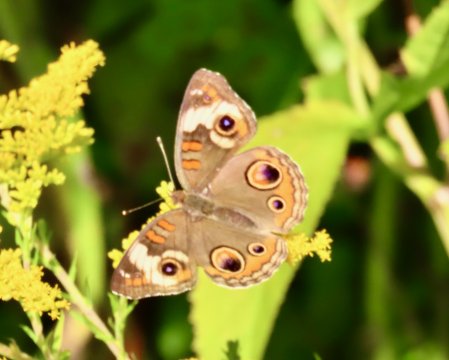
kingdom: Animalia
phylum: Arthropoda
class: Insecta
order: Lepidoptera
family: Nymphalidae
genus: Junonia
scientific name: Junonia coenia
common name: Common Buckeye
